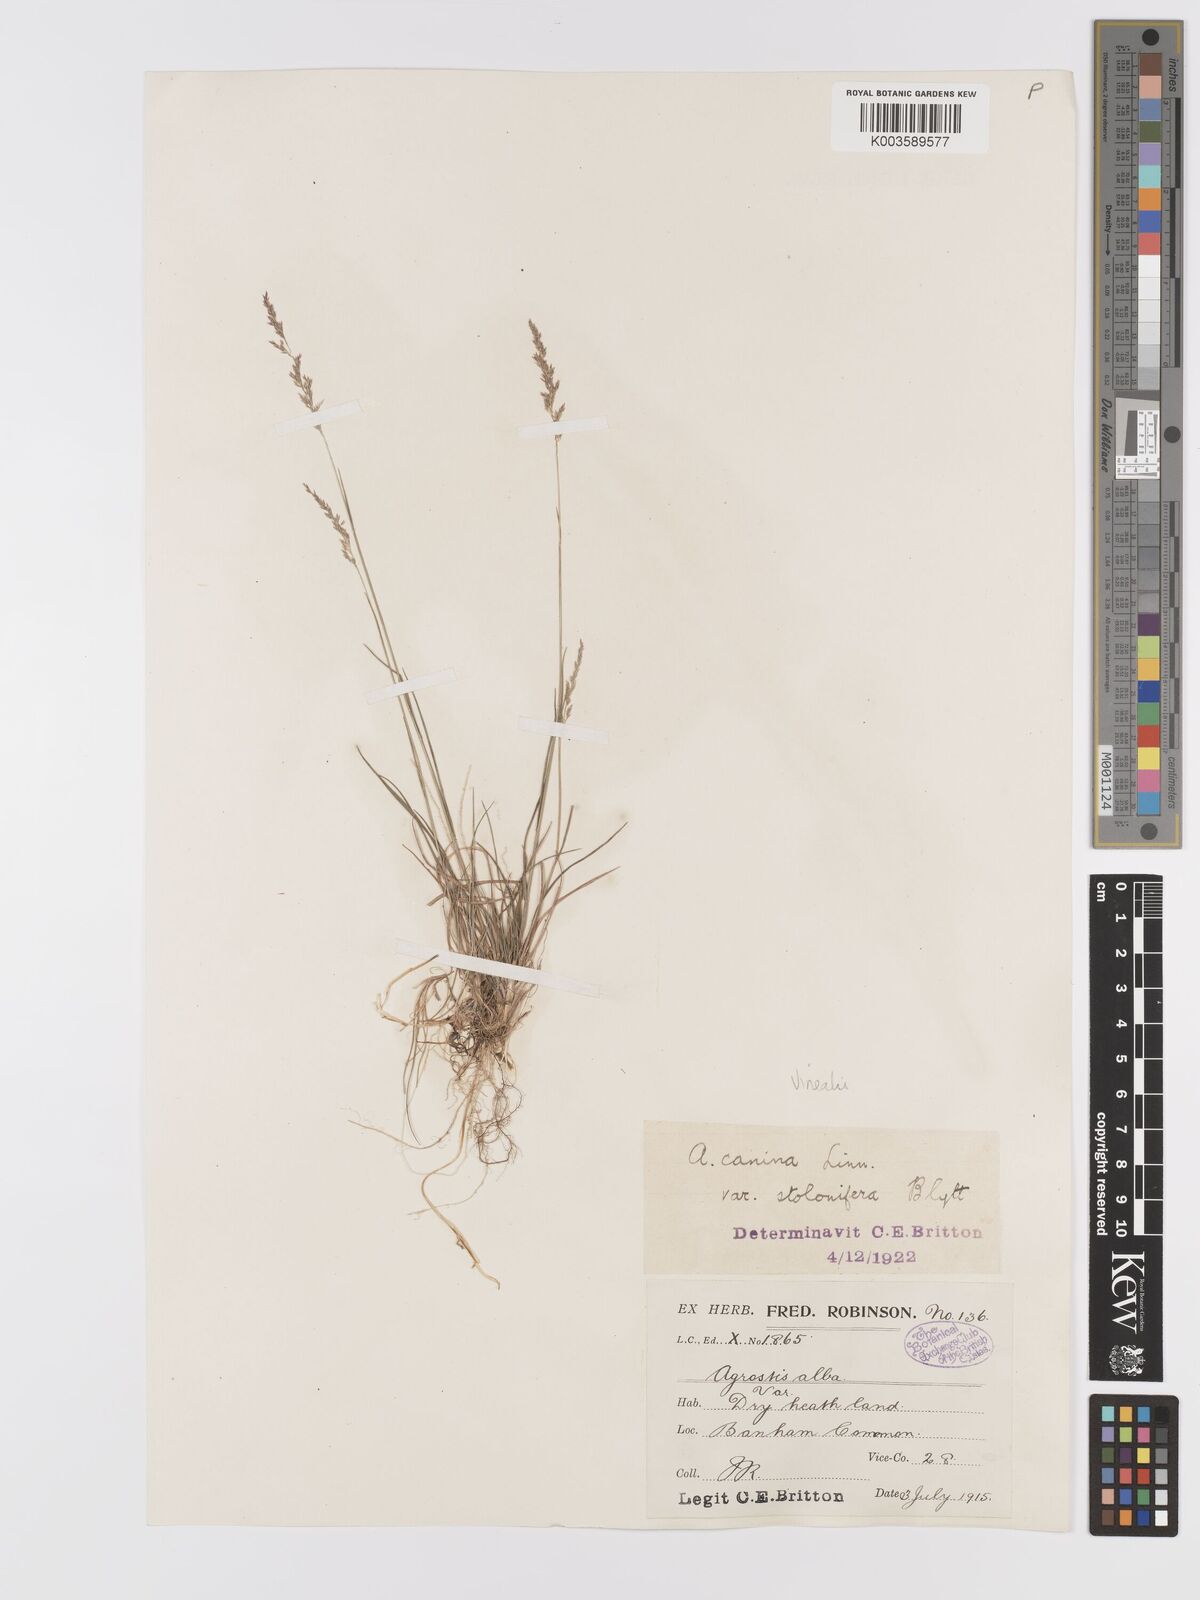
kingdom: Plantae
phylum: Tracheophyta
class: Liliopsida
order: Poales
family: Poaceae
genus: Agrostis
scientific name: Agrostis
